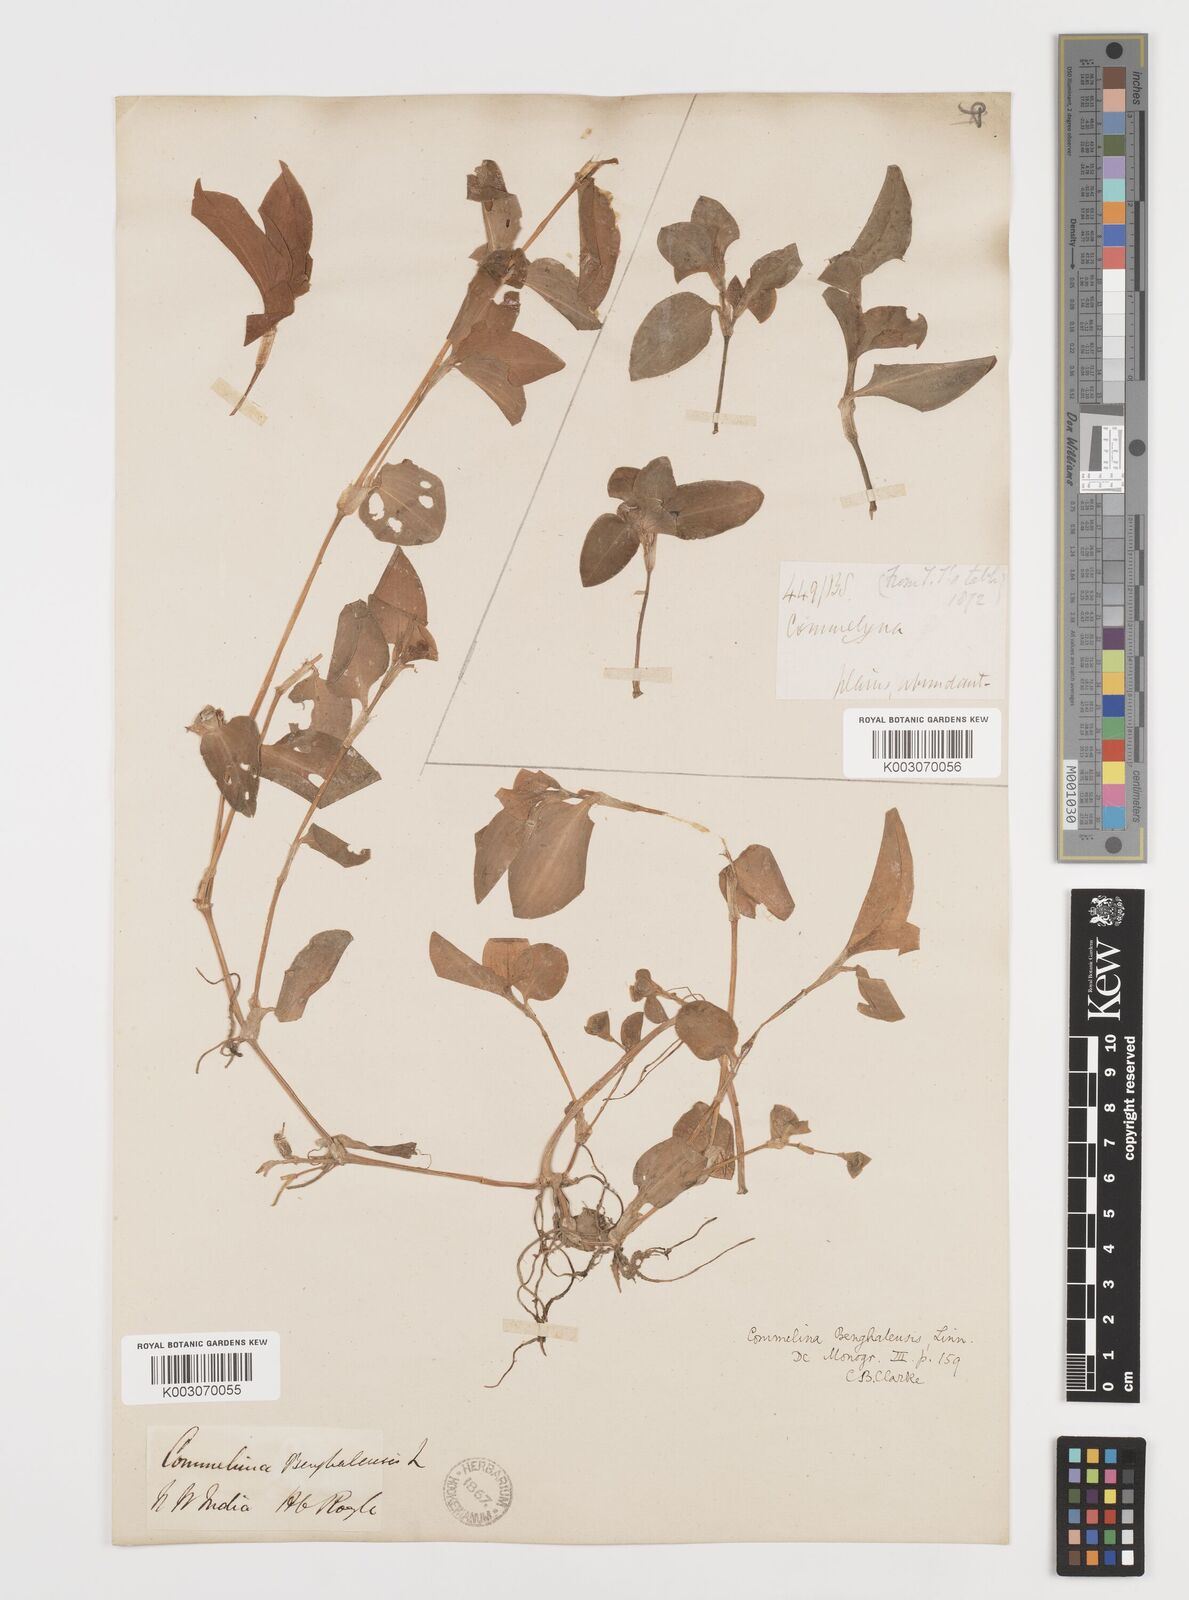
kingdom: Plantae
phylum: Tracheophyta
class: Liliopsida
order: Commelinales
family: Commelinaceae
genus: Commelina
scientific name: Commelina benghalensis
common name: Jio
